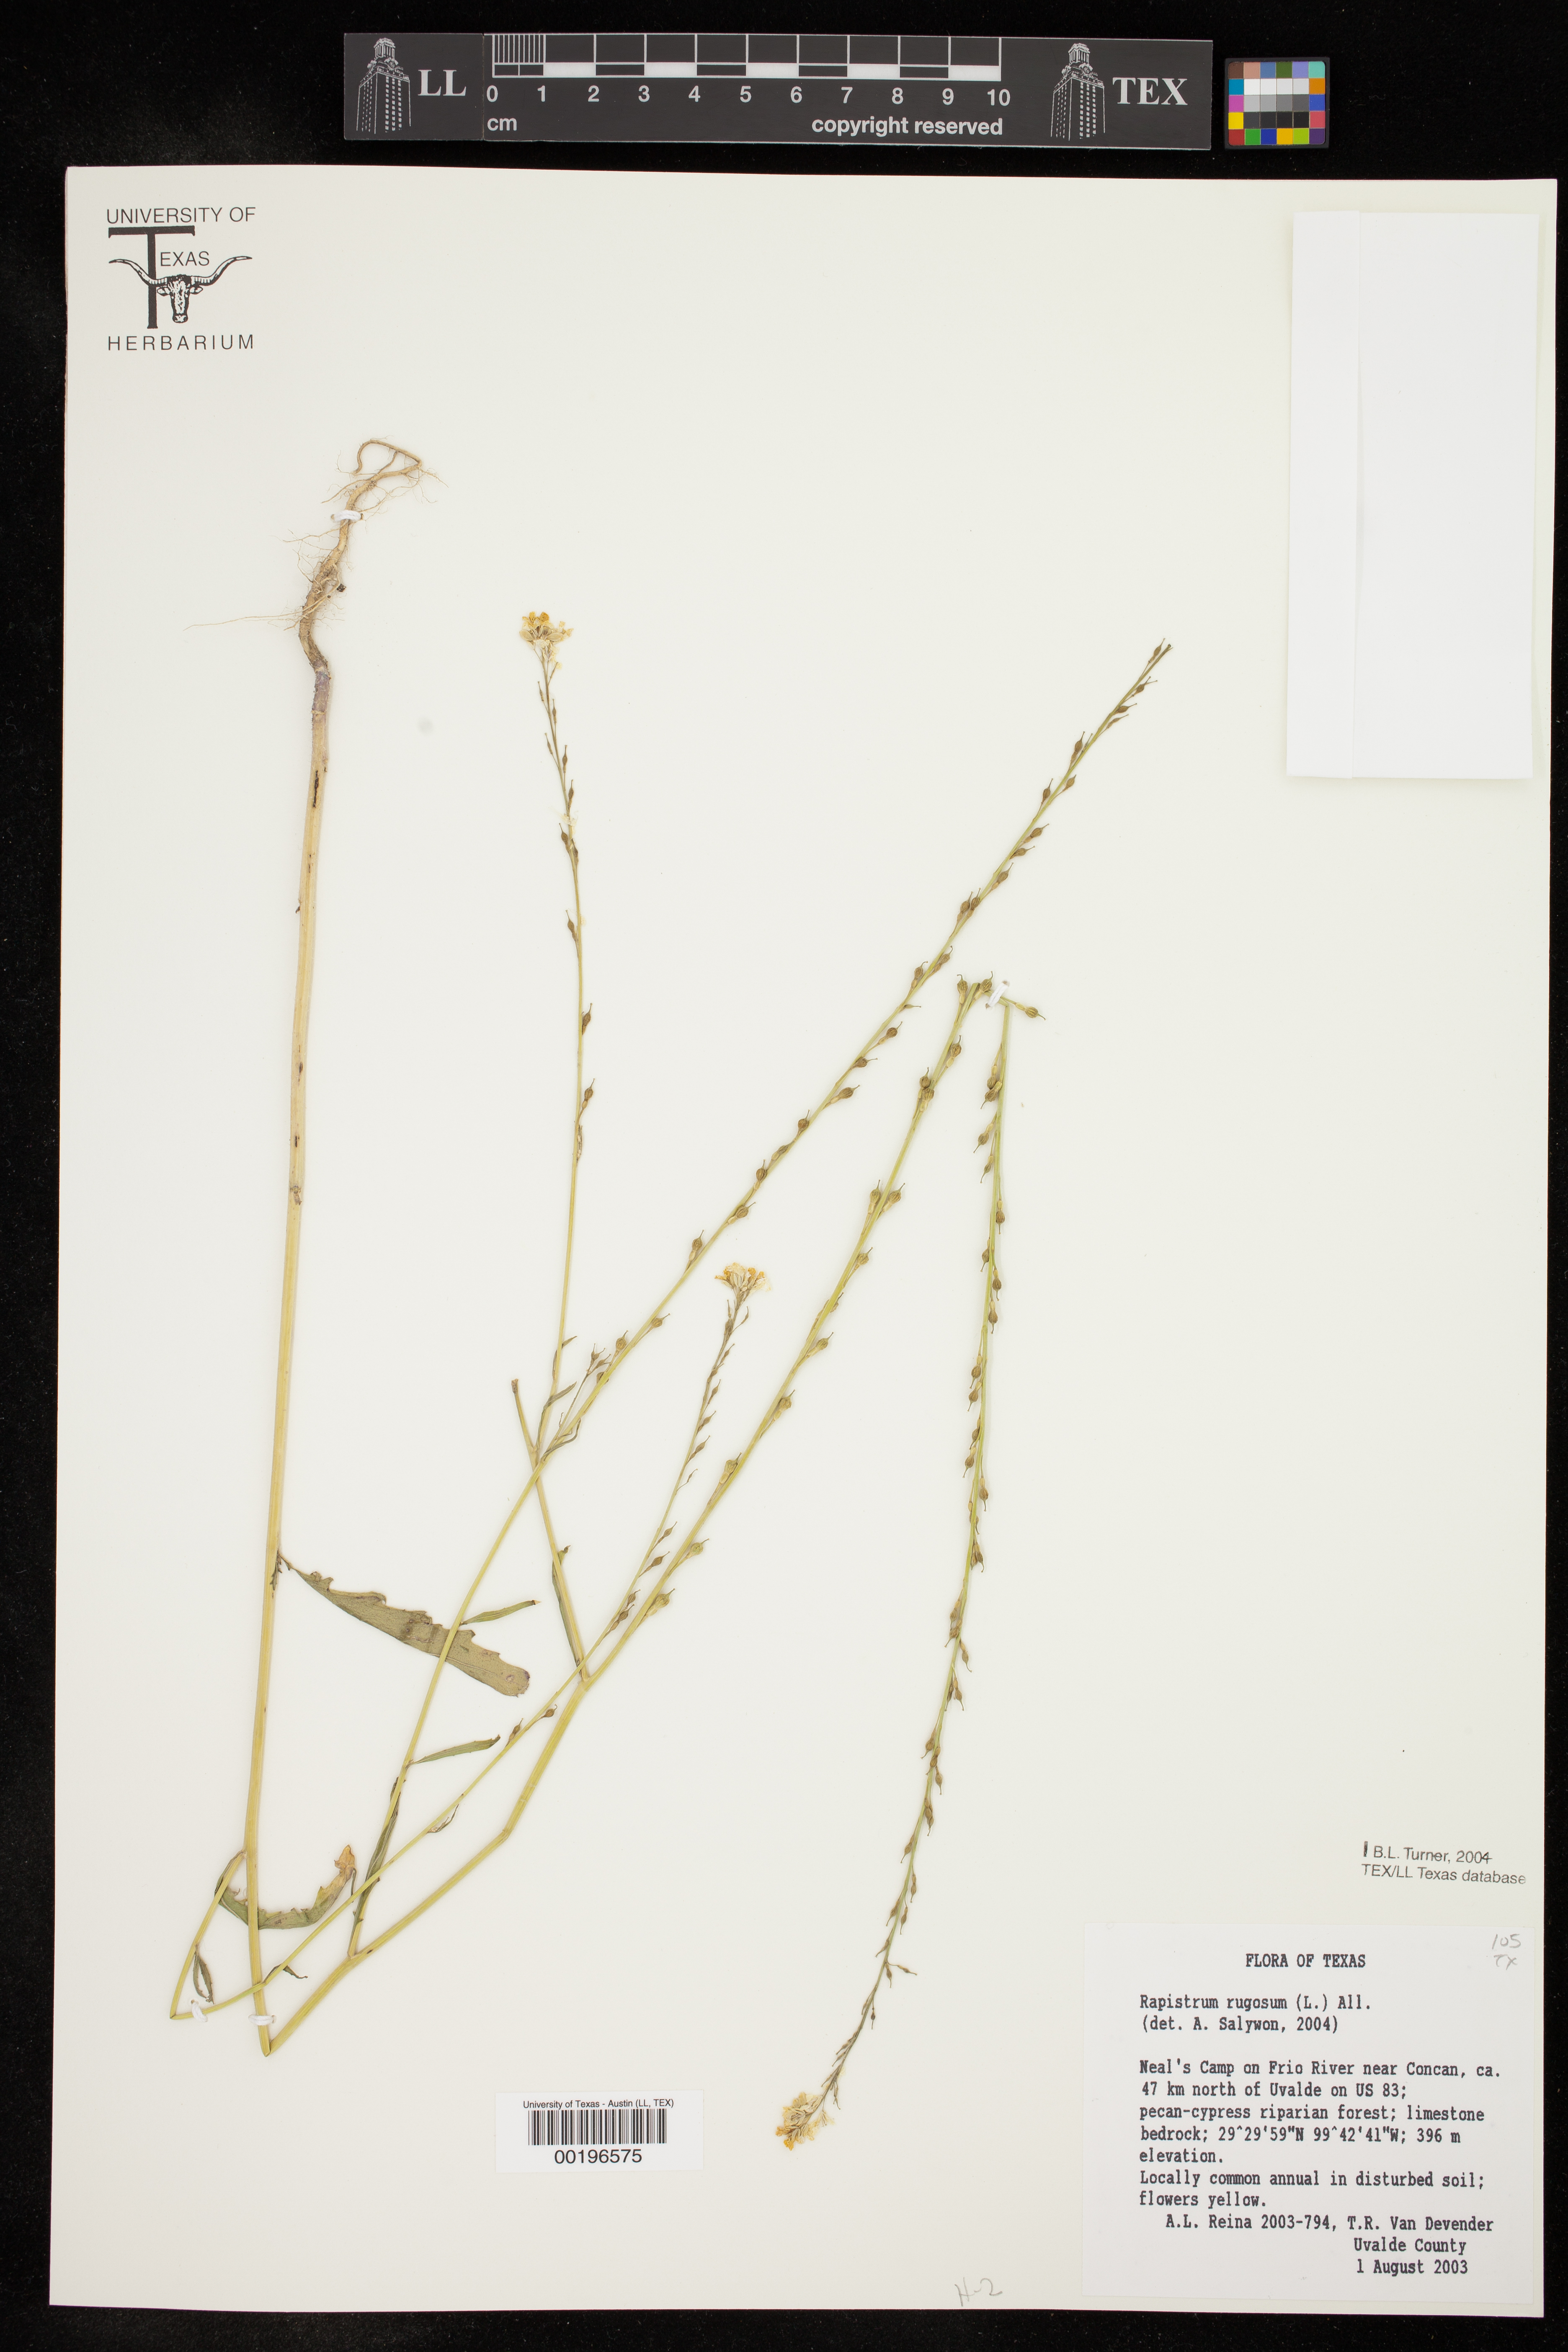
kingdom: Plantae
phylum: Tracheophyta
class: Magnoliopsida
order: Brassicales
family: Brassicaceae
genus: Rapistrum
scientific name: Rapistrum rugosum
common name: Annual bastardcabbage
